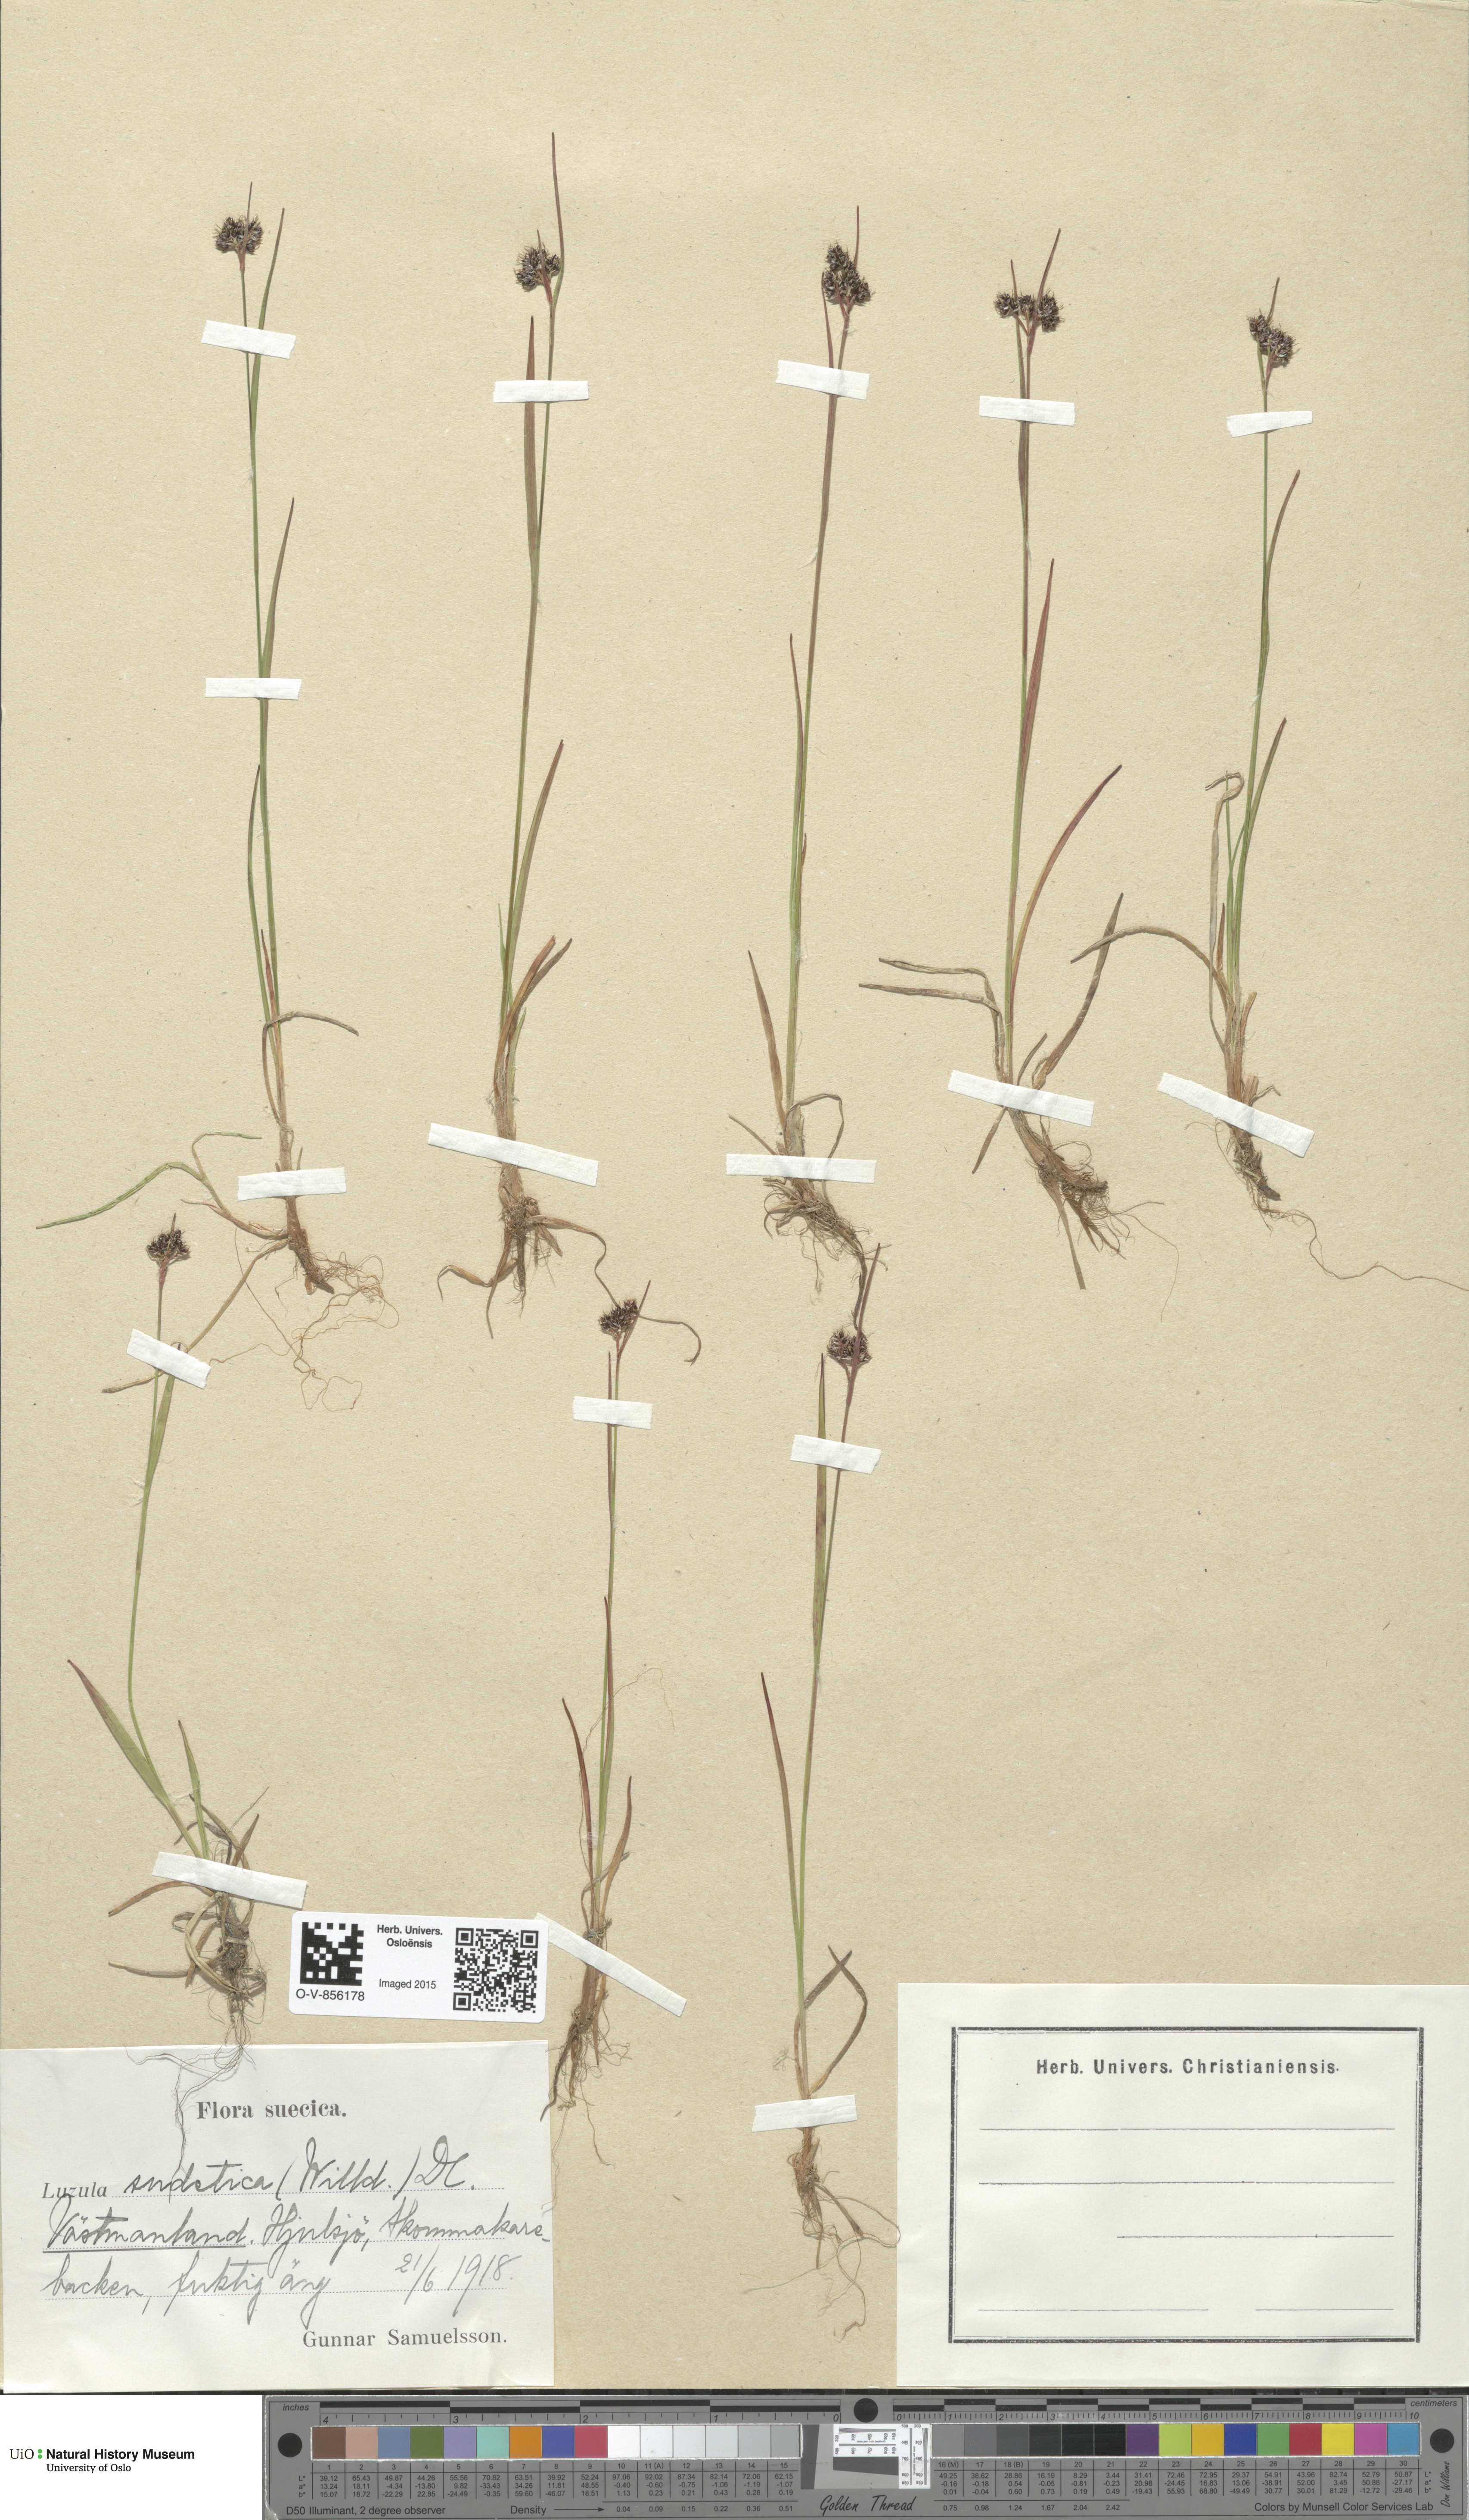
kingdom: Plantae
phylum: Tracheophyta
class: Liliopsida
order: Poales
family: Juncaceae
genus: Luzula
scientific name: Luzula sudetica
